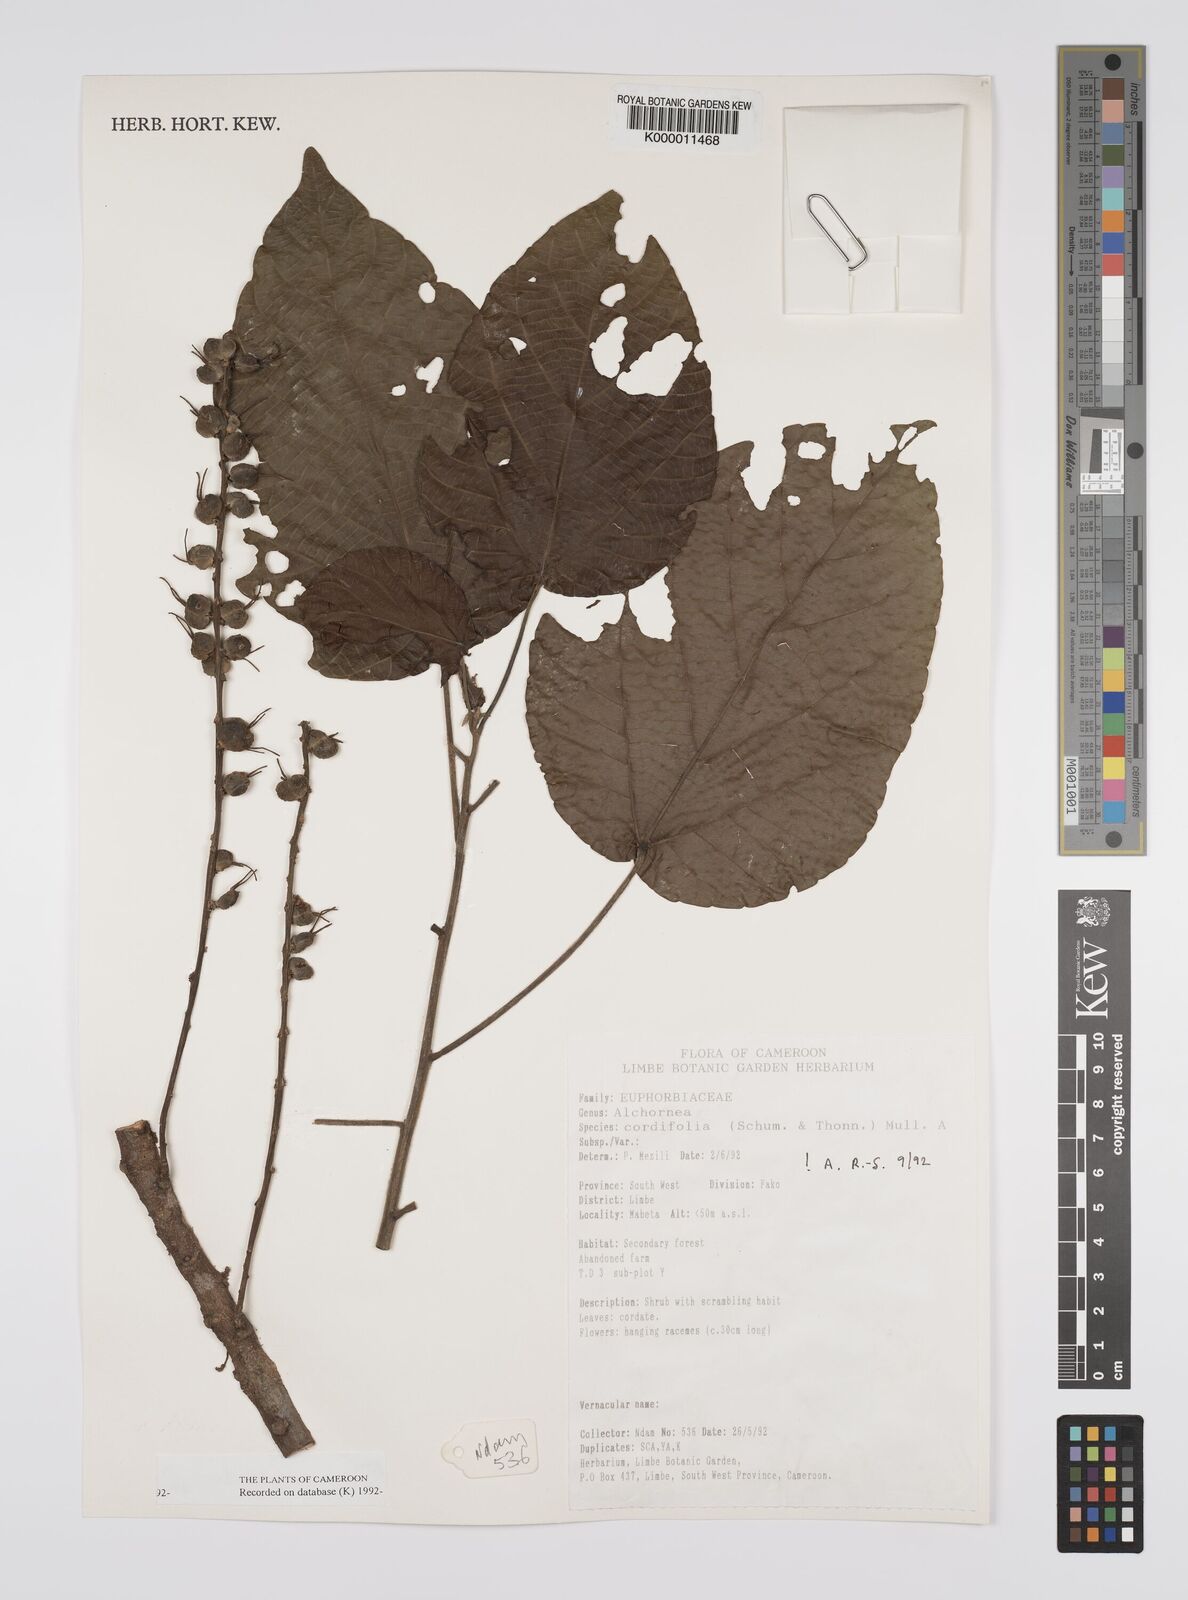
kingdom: Plantae
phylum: Tracheophyta
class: Magnoliopsida
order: Malpighiales
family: Euphorbiaceae
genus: Alchornea
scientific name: Alchornea
